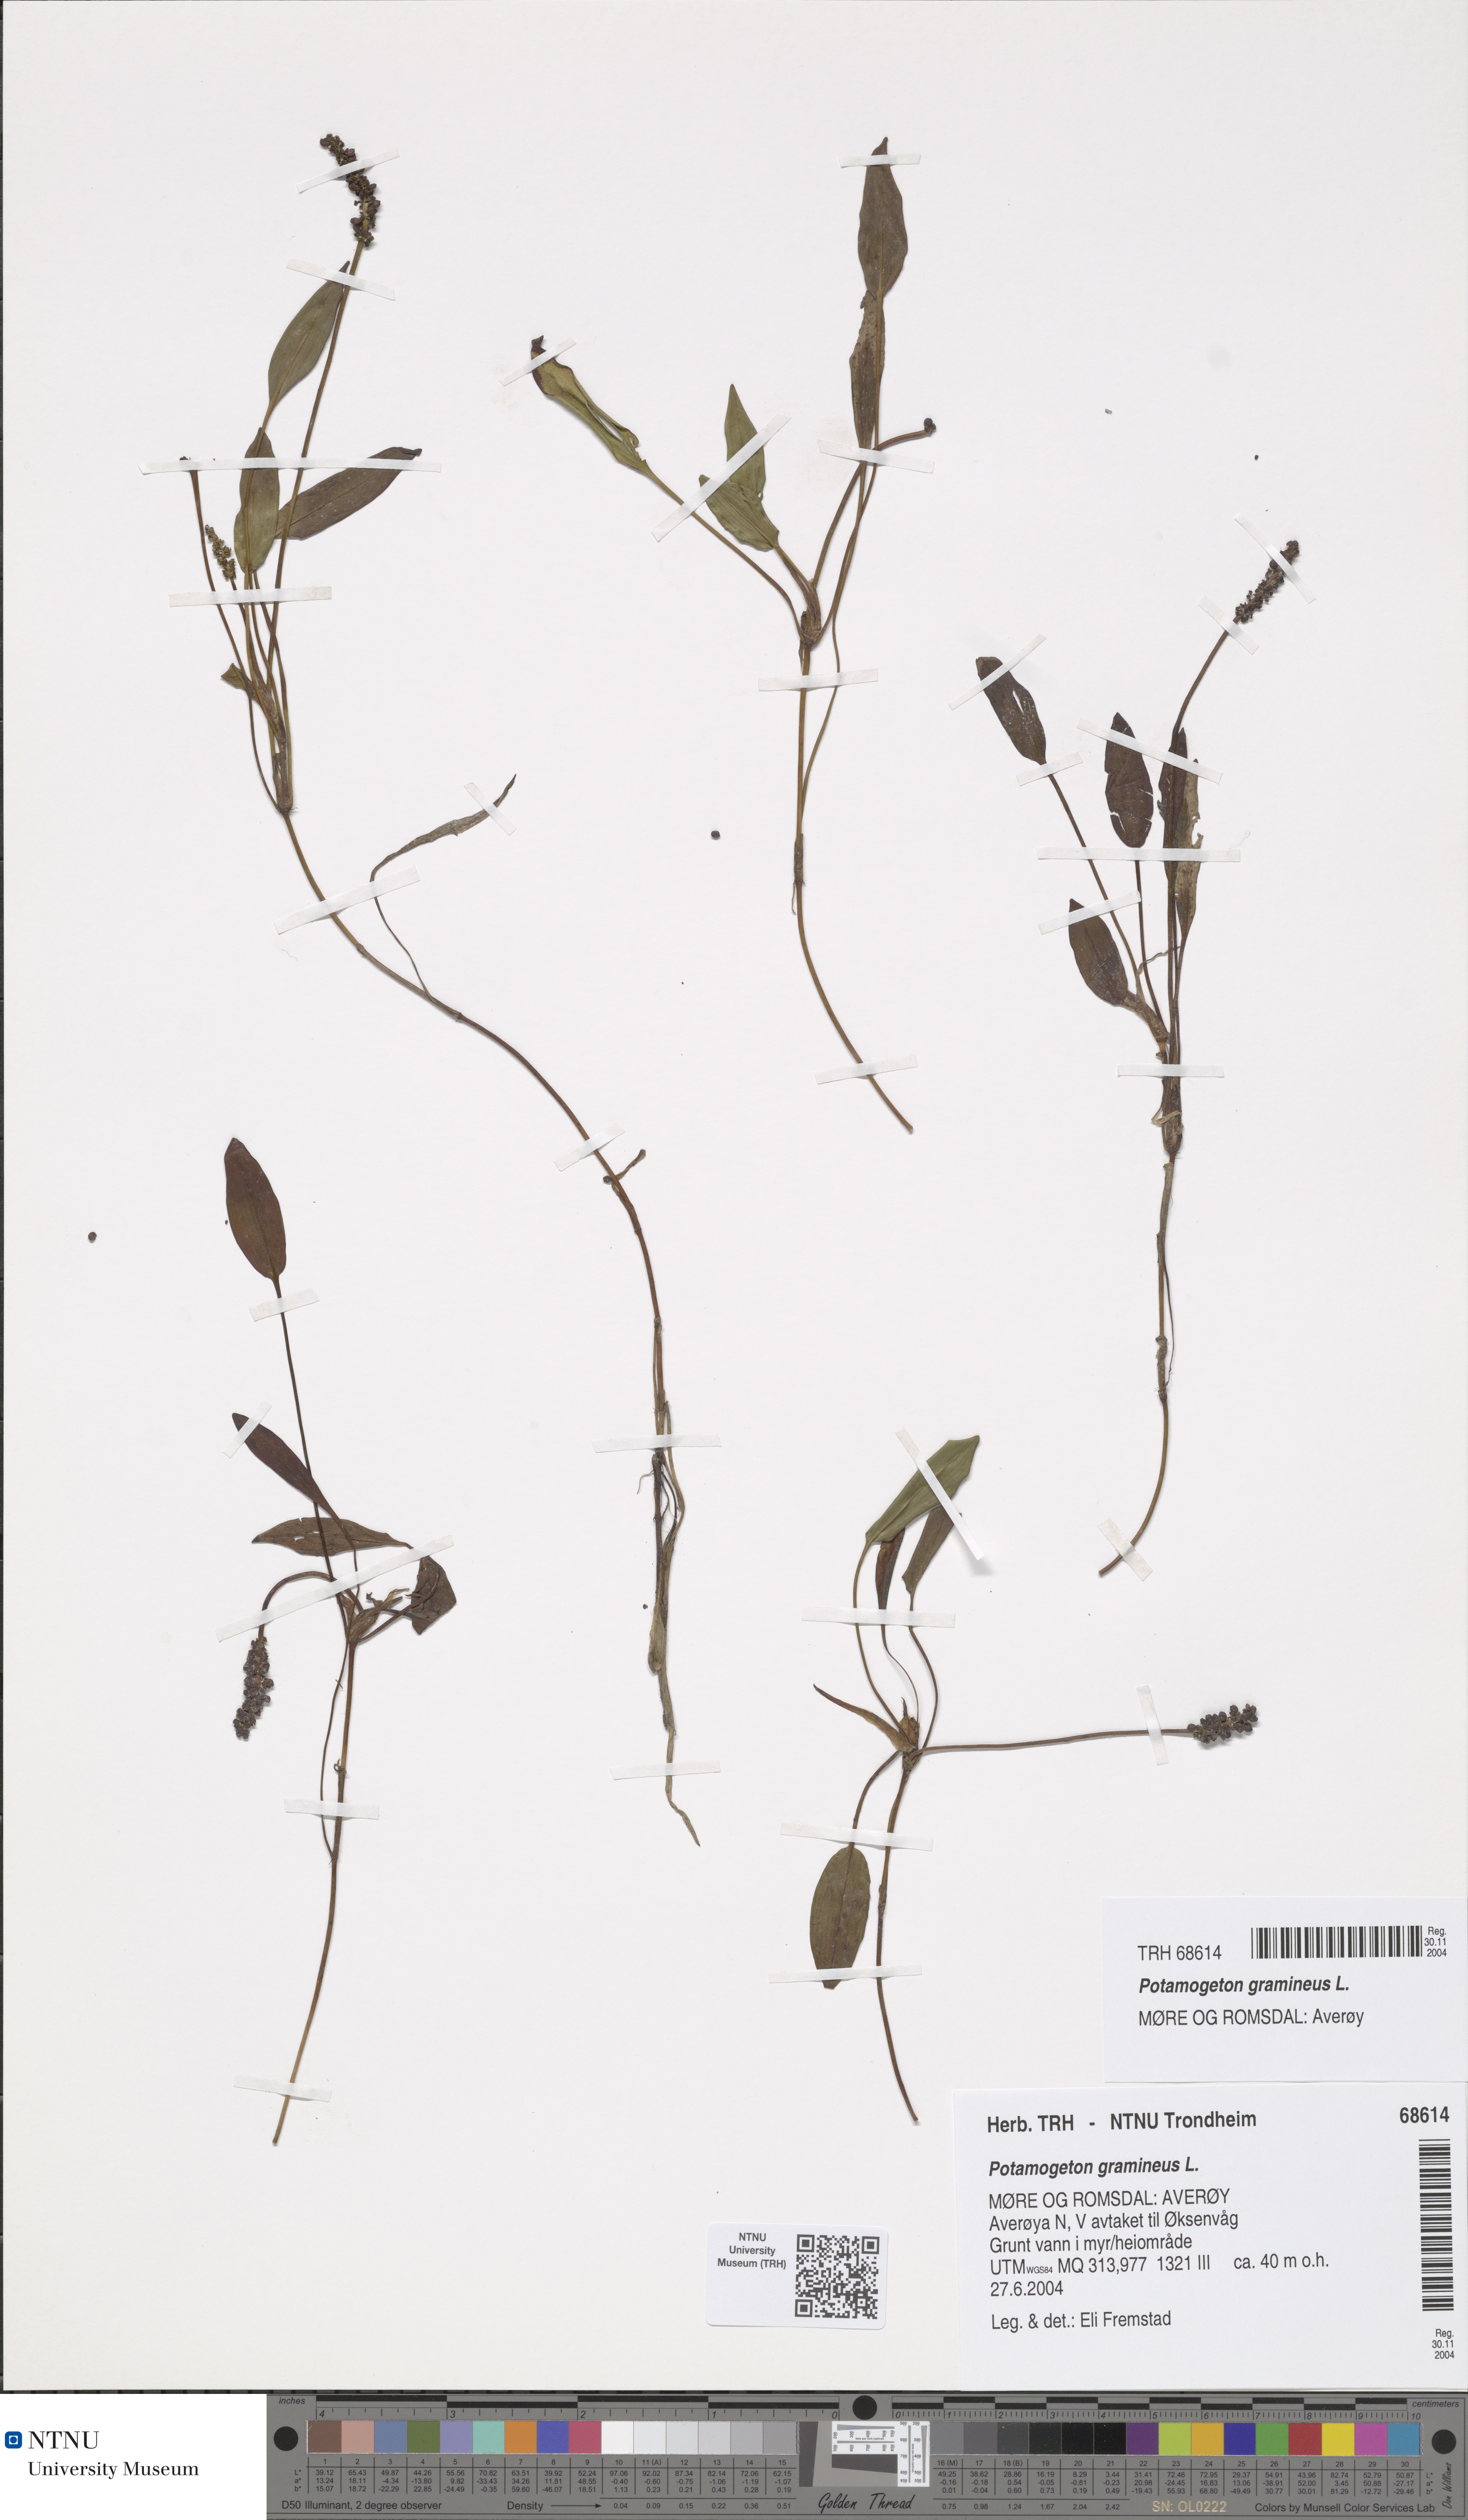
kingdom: Plantae
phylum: Tracheophyta
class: Liliopsida
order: Alismatales
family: Potamogetonaceae
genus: Potamogeton
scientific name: Potamogeton polygonifolius
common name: Bog pondweed
